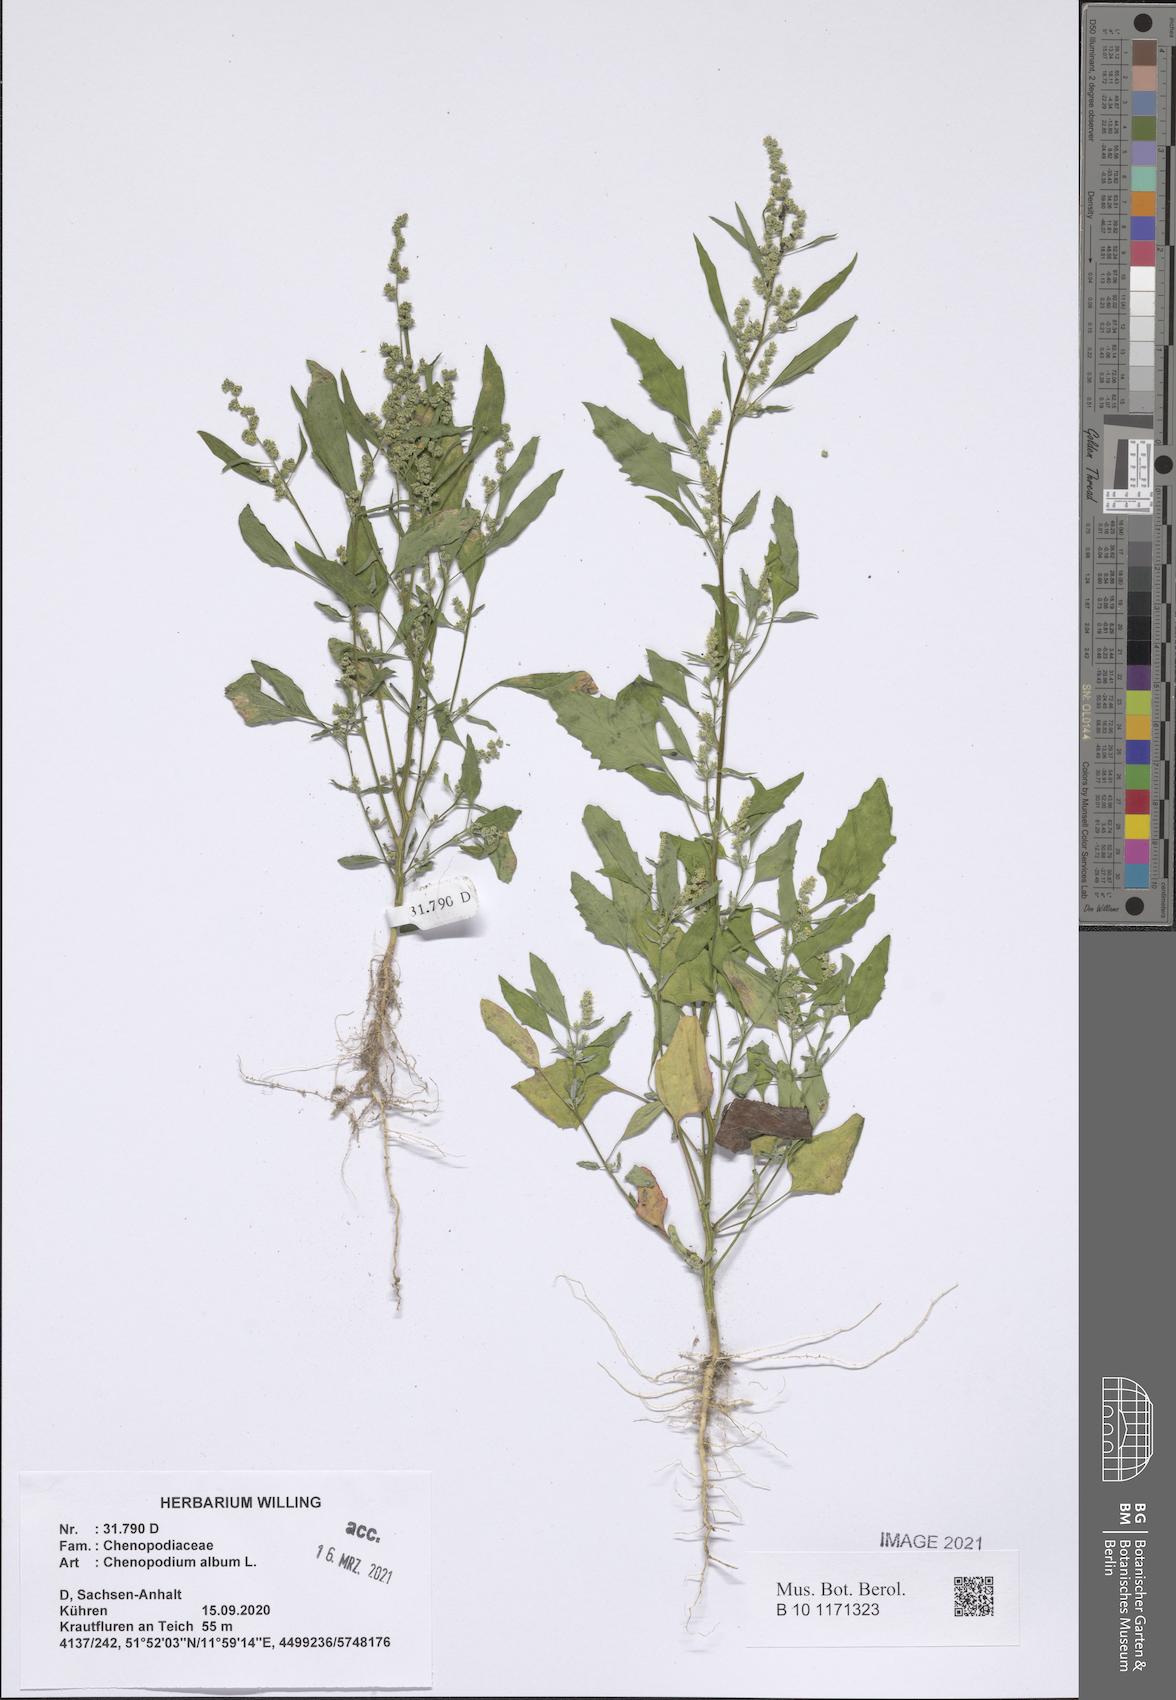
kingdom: Plantae
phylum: Tracheophyta
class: Magnoliopsida
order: Caryophyllales
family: Amaranthaceae
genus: Chenopodium
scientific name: Chenopodium album
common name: Fat-hen
